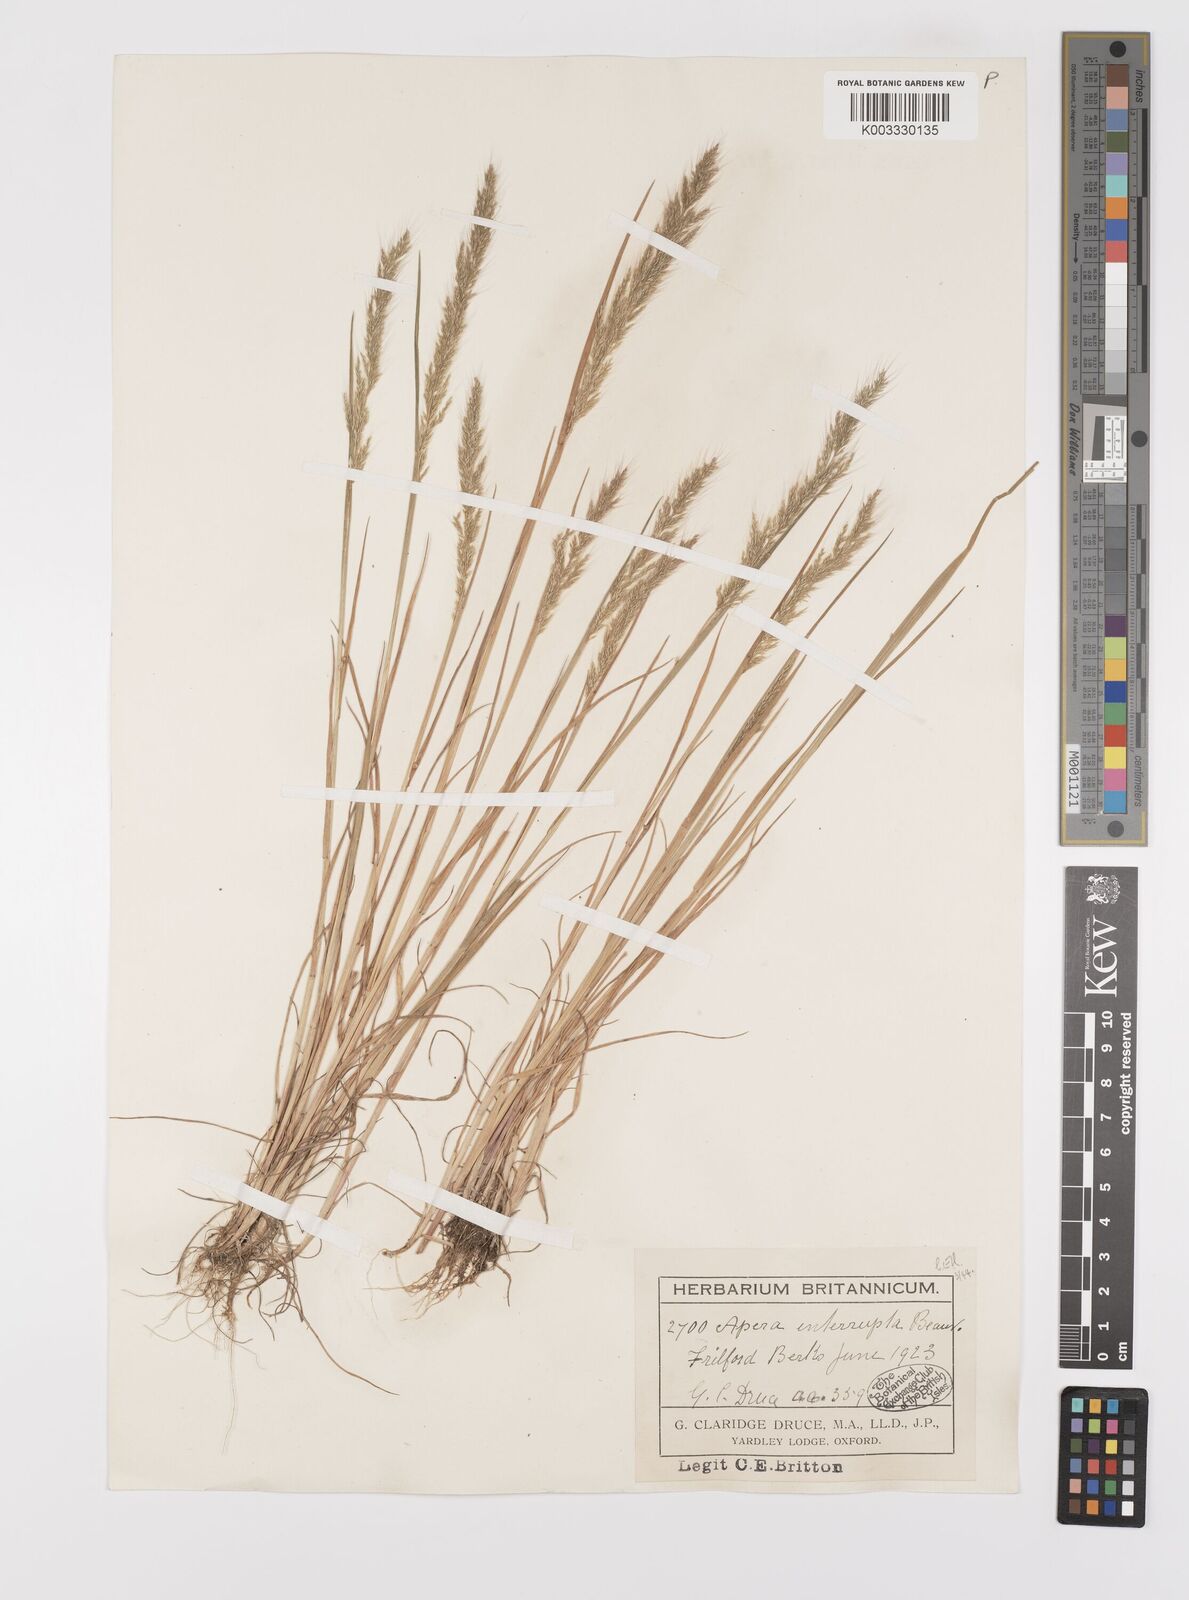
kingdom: Plantae
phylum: Tracheophyta
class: Liliopsida
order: Poales
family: Poaceae
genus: Apera
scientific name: Apera interrupta
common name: Dense silky-bent
